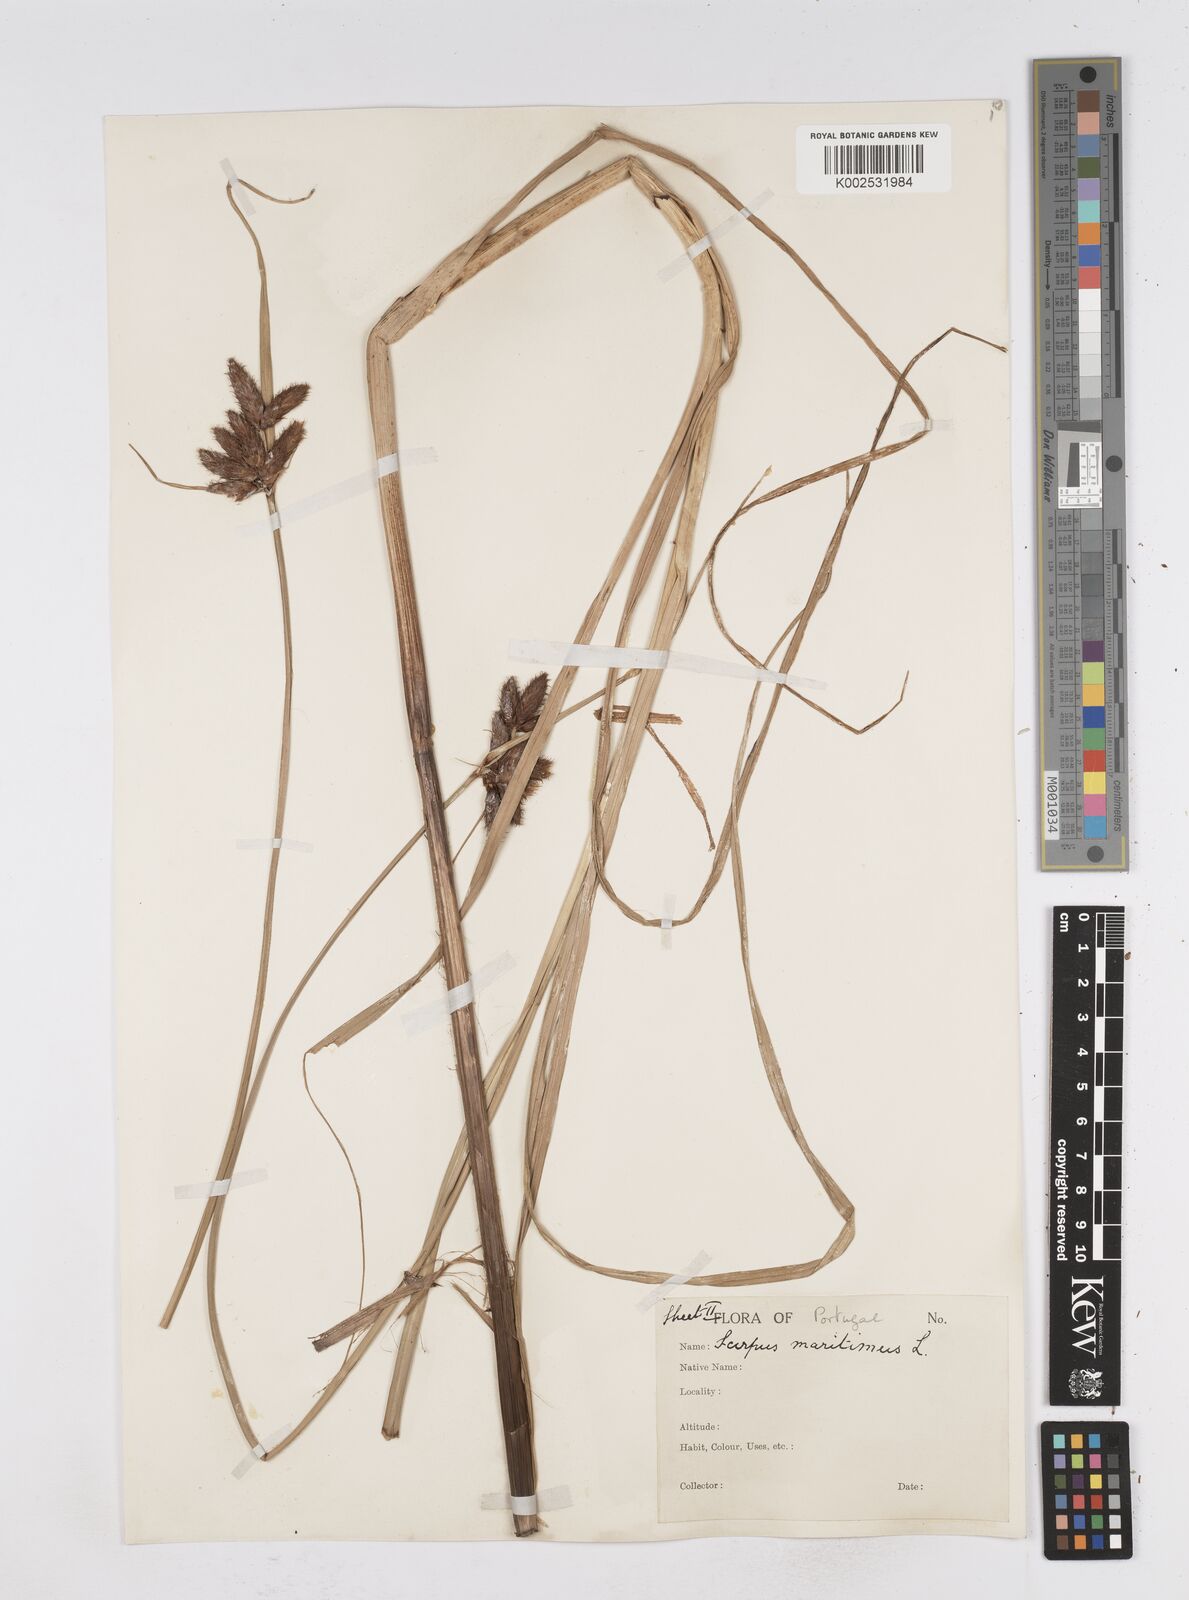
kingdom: Plantae
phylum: Tracheophyta
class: Liliopsida
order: Poales
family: Cyperaceae
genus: Bolboschoenus
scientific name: Bolboschoenus maritimus
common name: Sea club-rush
